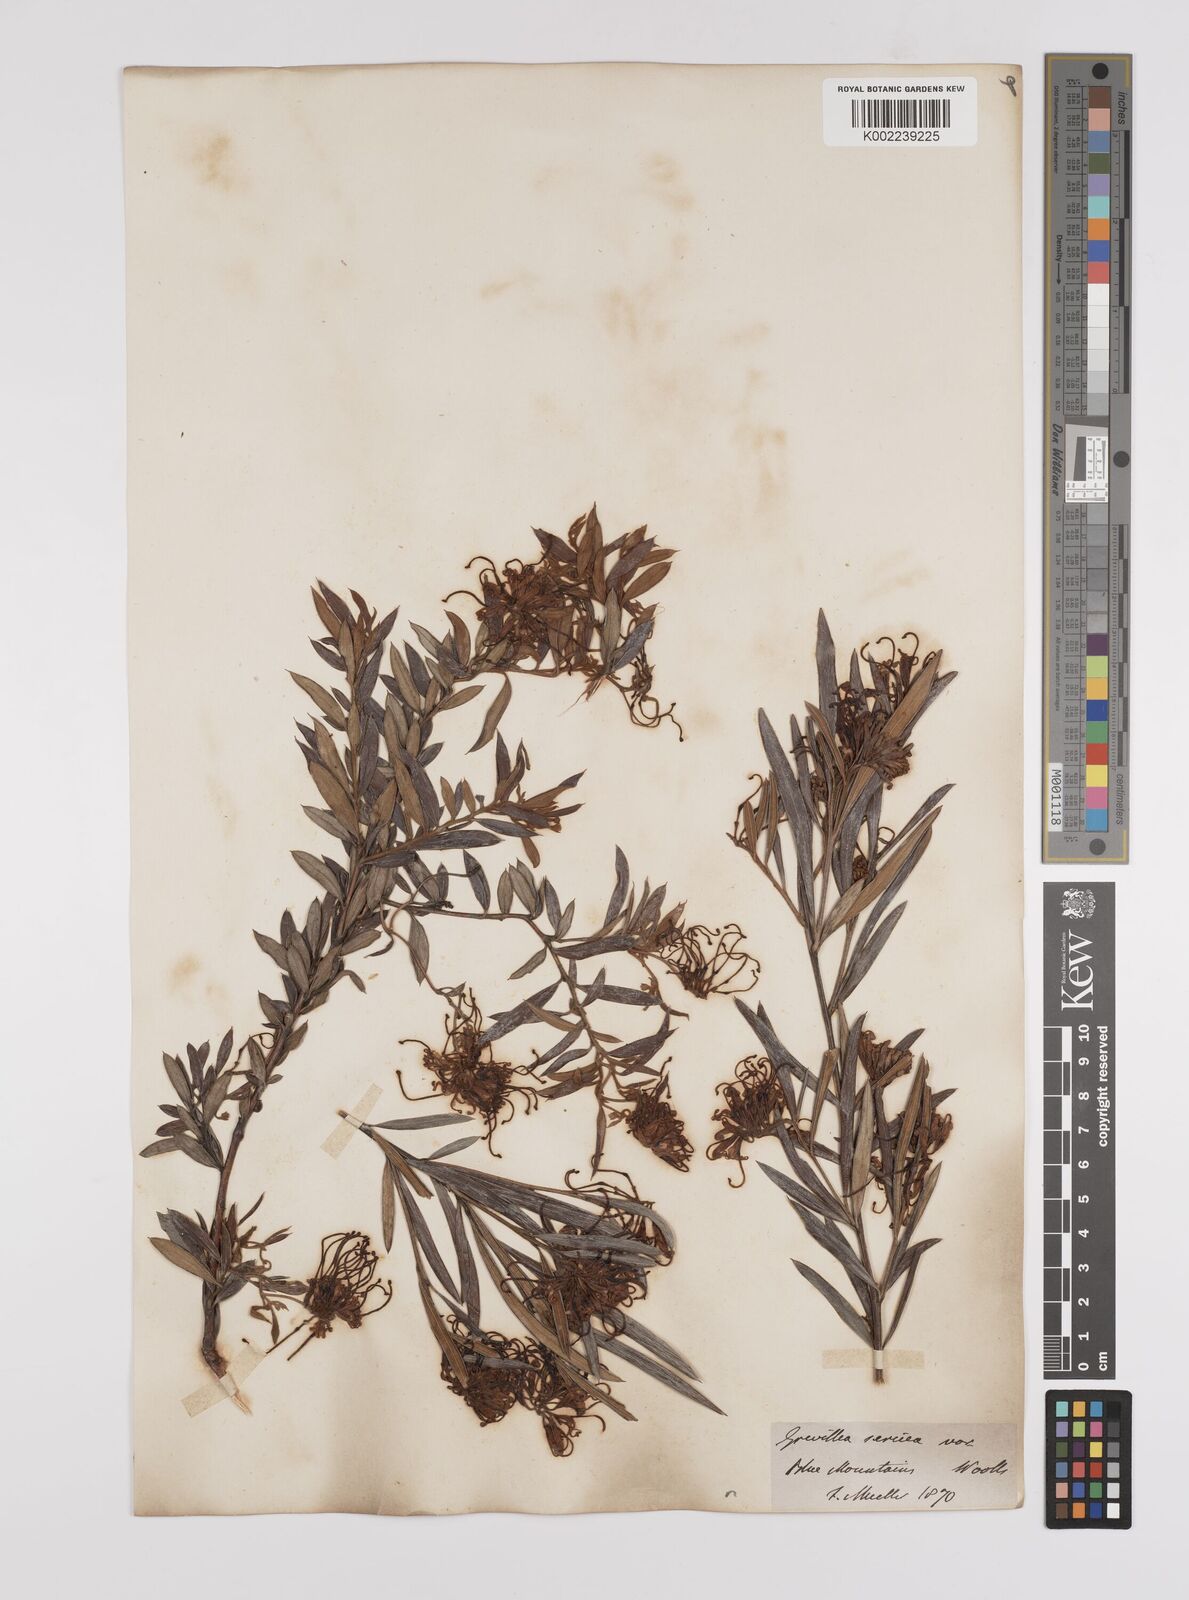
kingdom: Plantae
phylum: Tracheophyta
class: Magnoliopsida
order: Proteales
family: Proteaceae
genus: Grevillea
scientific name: Grevillea sericea
